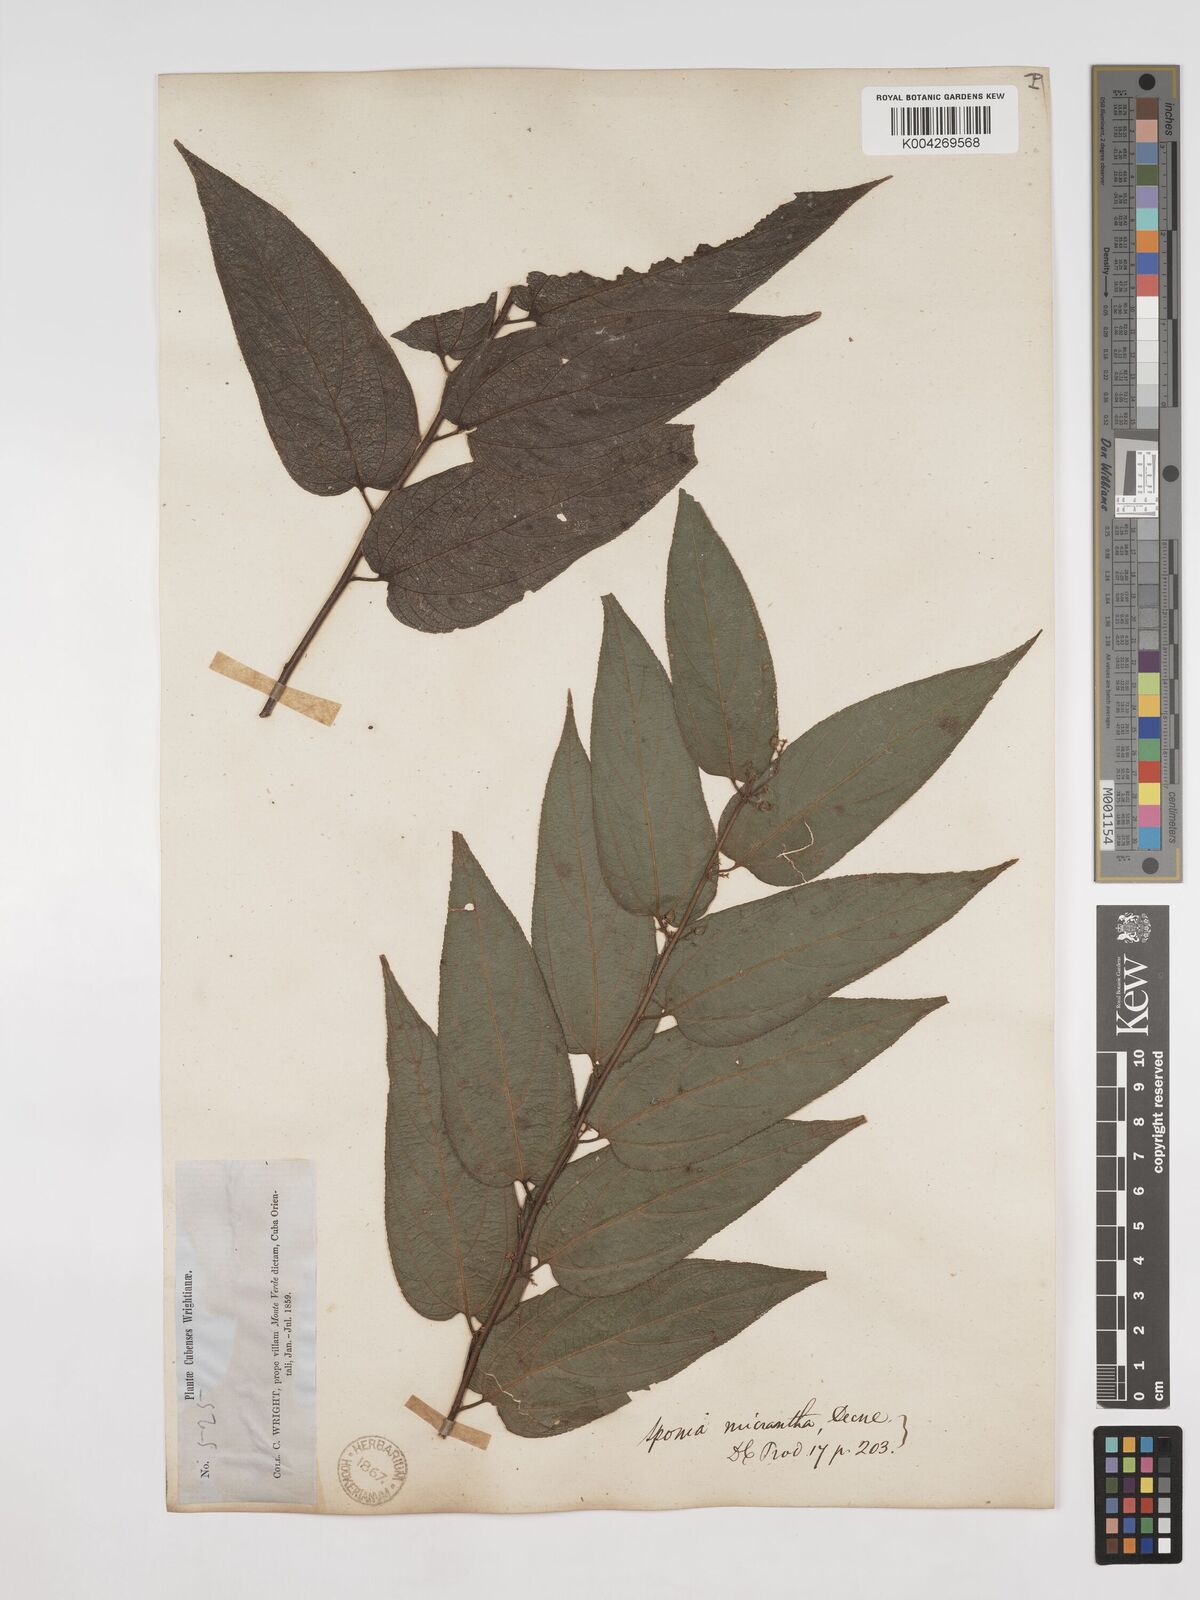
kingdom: Plantae
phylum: Tracheophyta
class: Magnoliopsida
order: Rosales
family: Cannabaceae
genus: Trema
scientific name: Trema micranthum
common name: Jamaican nettletree
